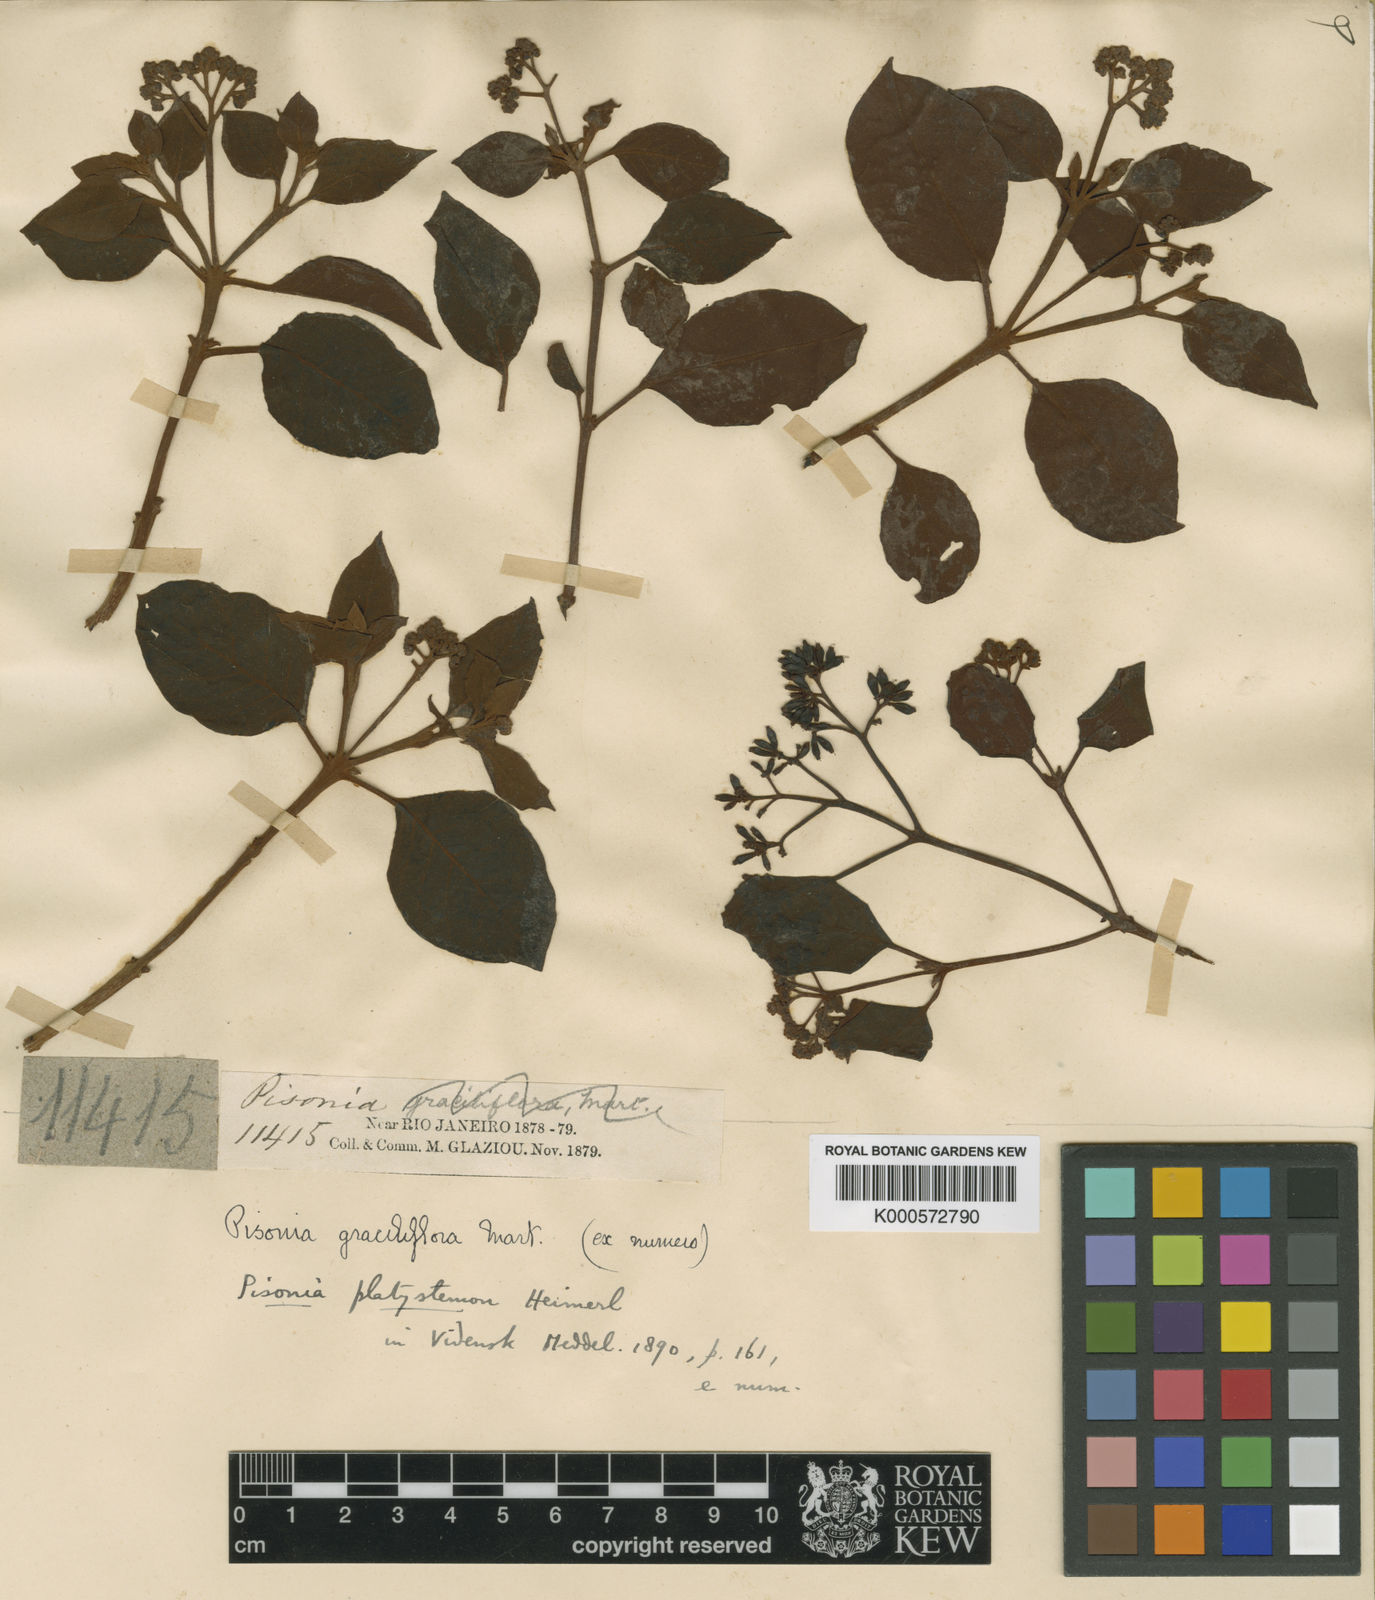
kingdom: Plantae
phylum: Tracheophyta
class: Magnoliopsida
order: Caryophyllales
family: Nyctaginaceae
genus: Guapira
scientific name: Guapira
